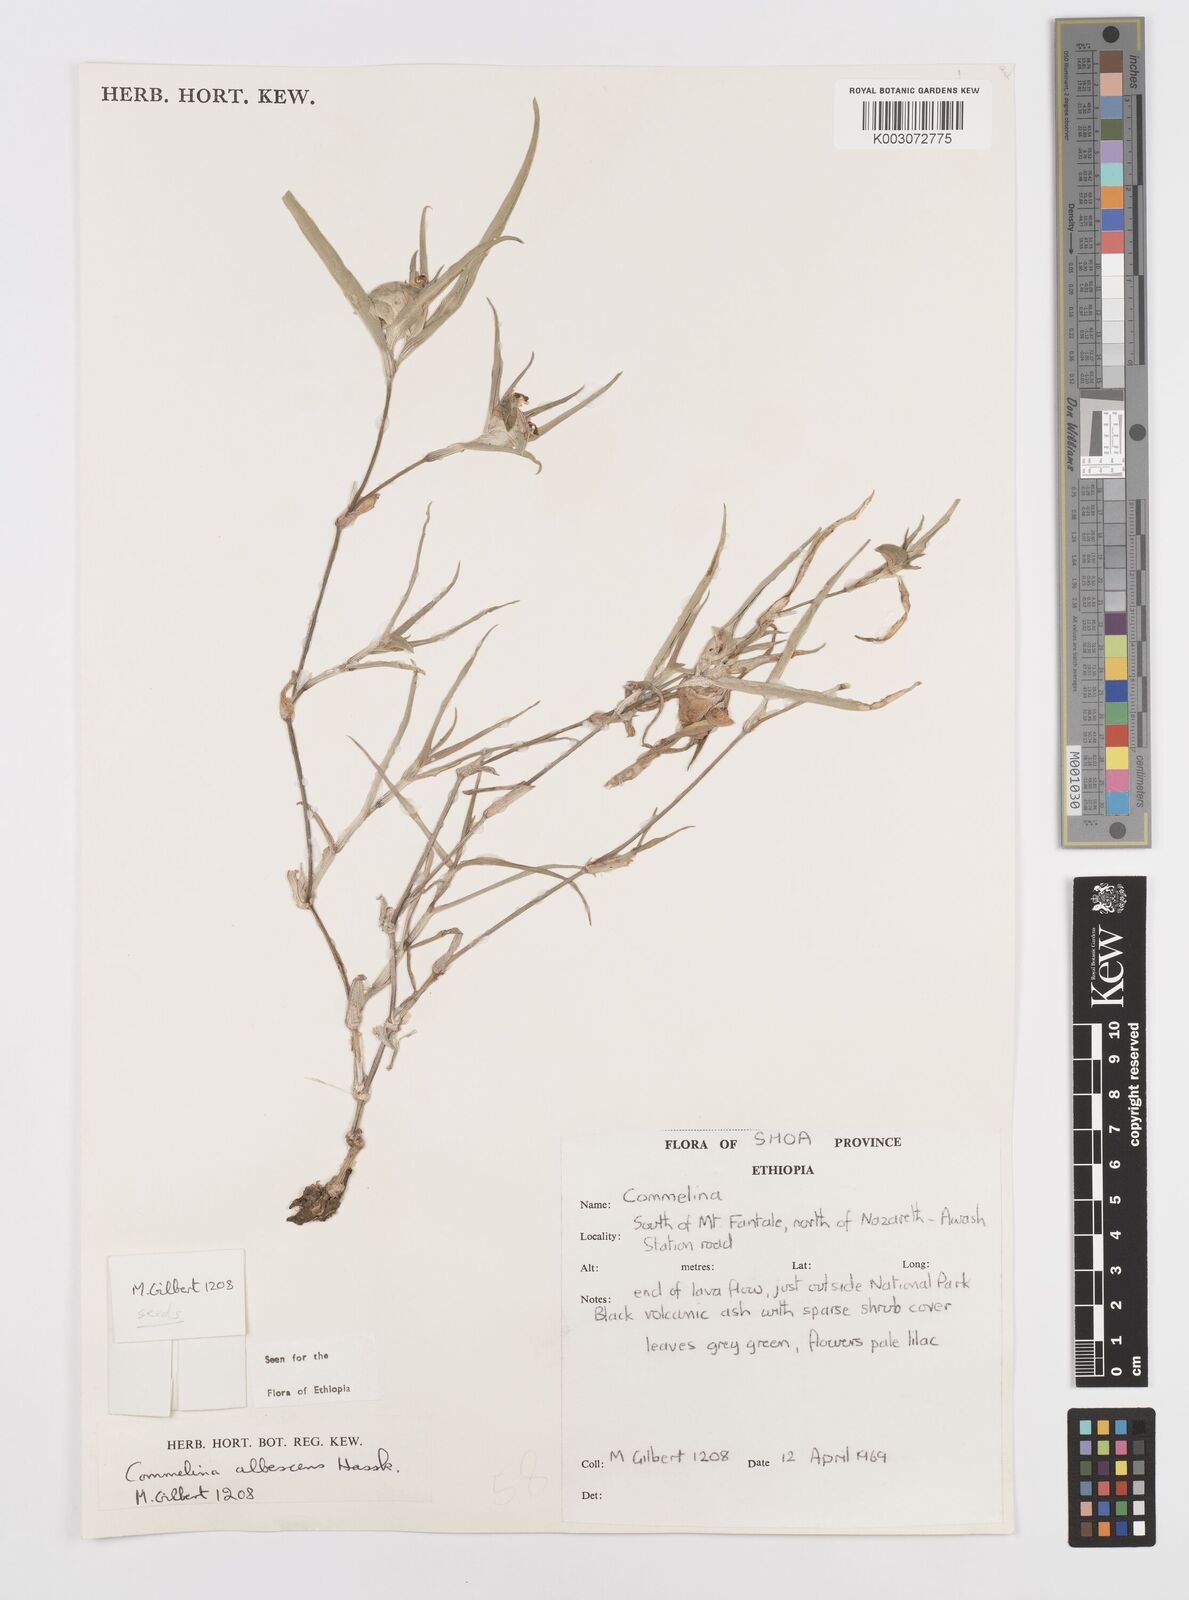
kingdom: Plantae
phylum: Tracheophyta
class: Liliopsida
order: Commelinales
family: Commelinaceae
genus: Commelina
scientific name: Commelina albescens
